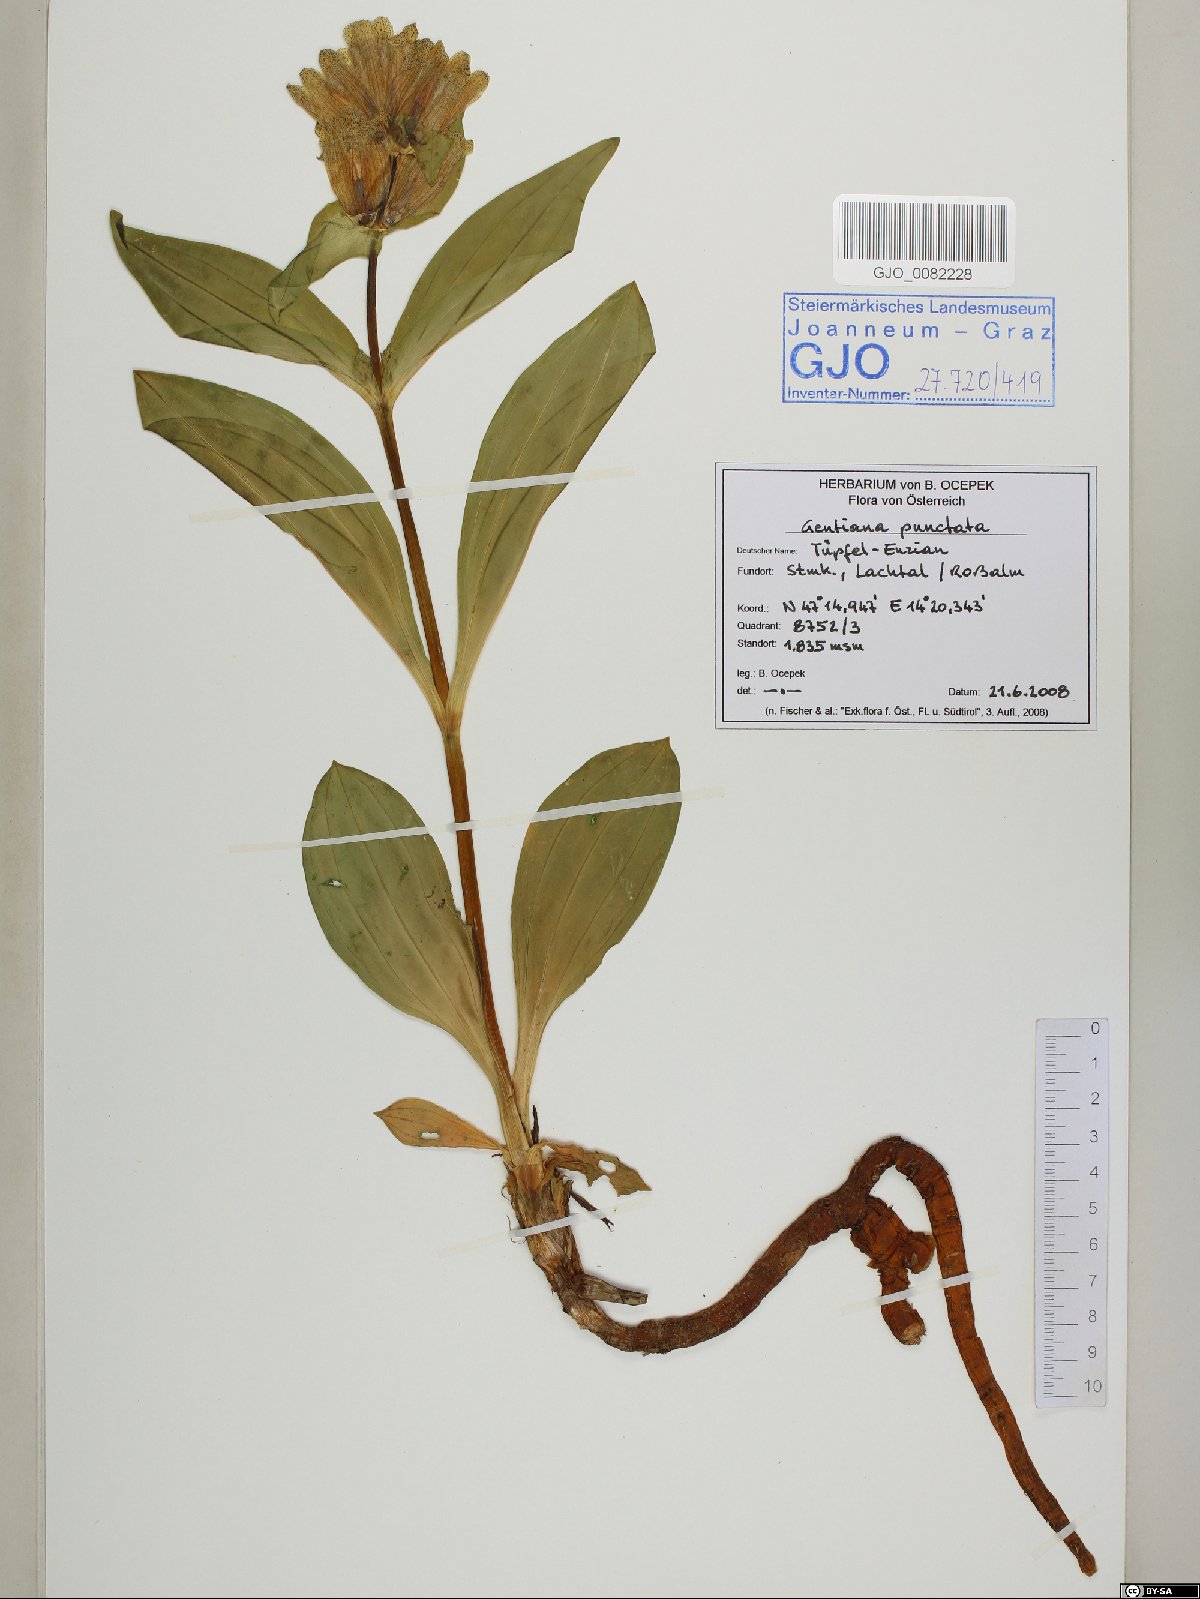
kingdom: Plantae
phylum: Tracheophyta
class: Magnoliopsida
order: Gentianales
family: Gentianaceae
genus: Gentiana
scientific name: Gentiana punctata
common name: Spotted gentian
